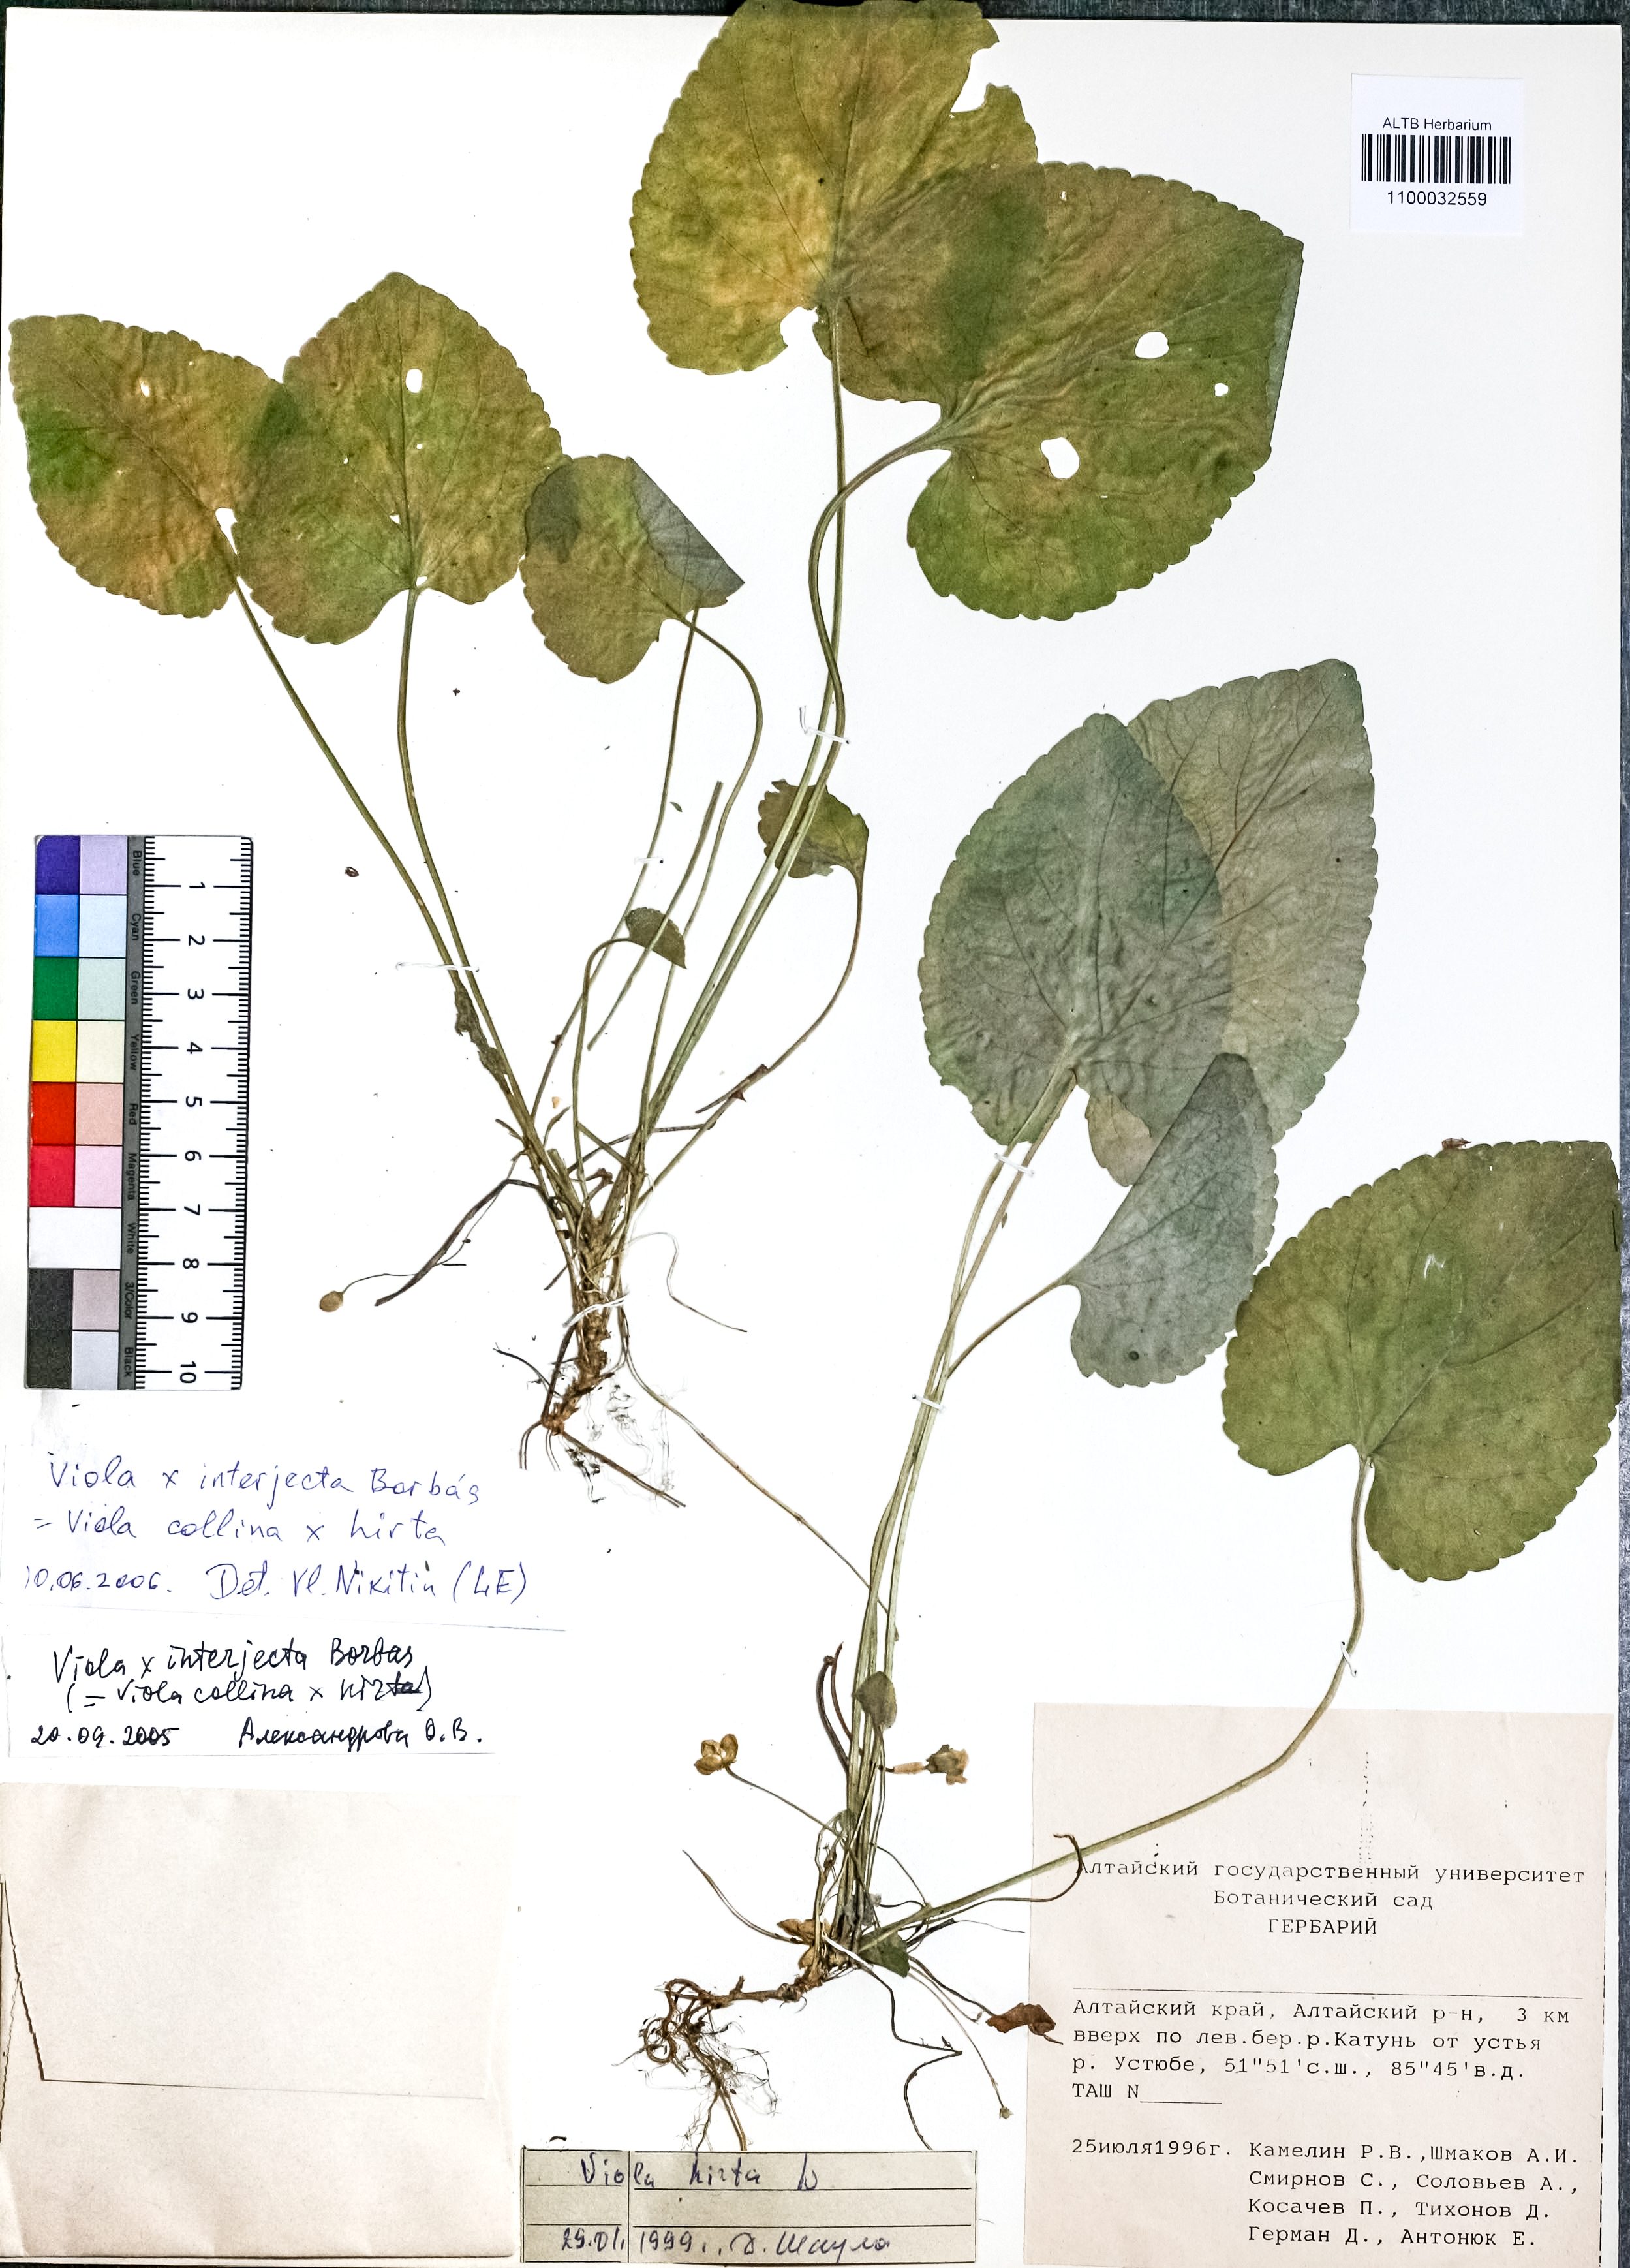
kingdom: Plantae
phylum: Tracheophyta
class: Magnoliopsida
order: Malpighiales
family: Violaceae
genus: Viola
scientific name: Viola interjecta
